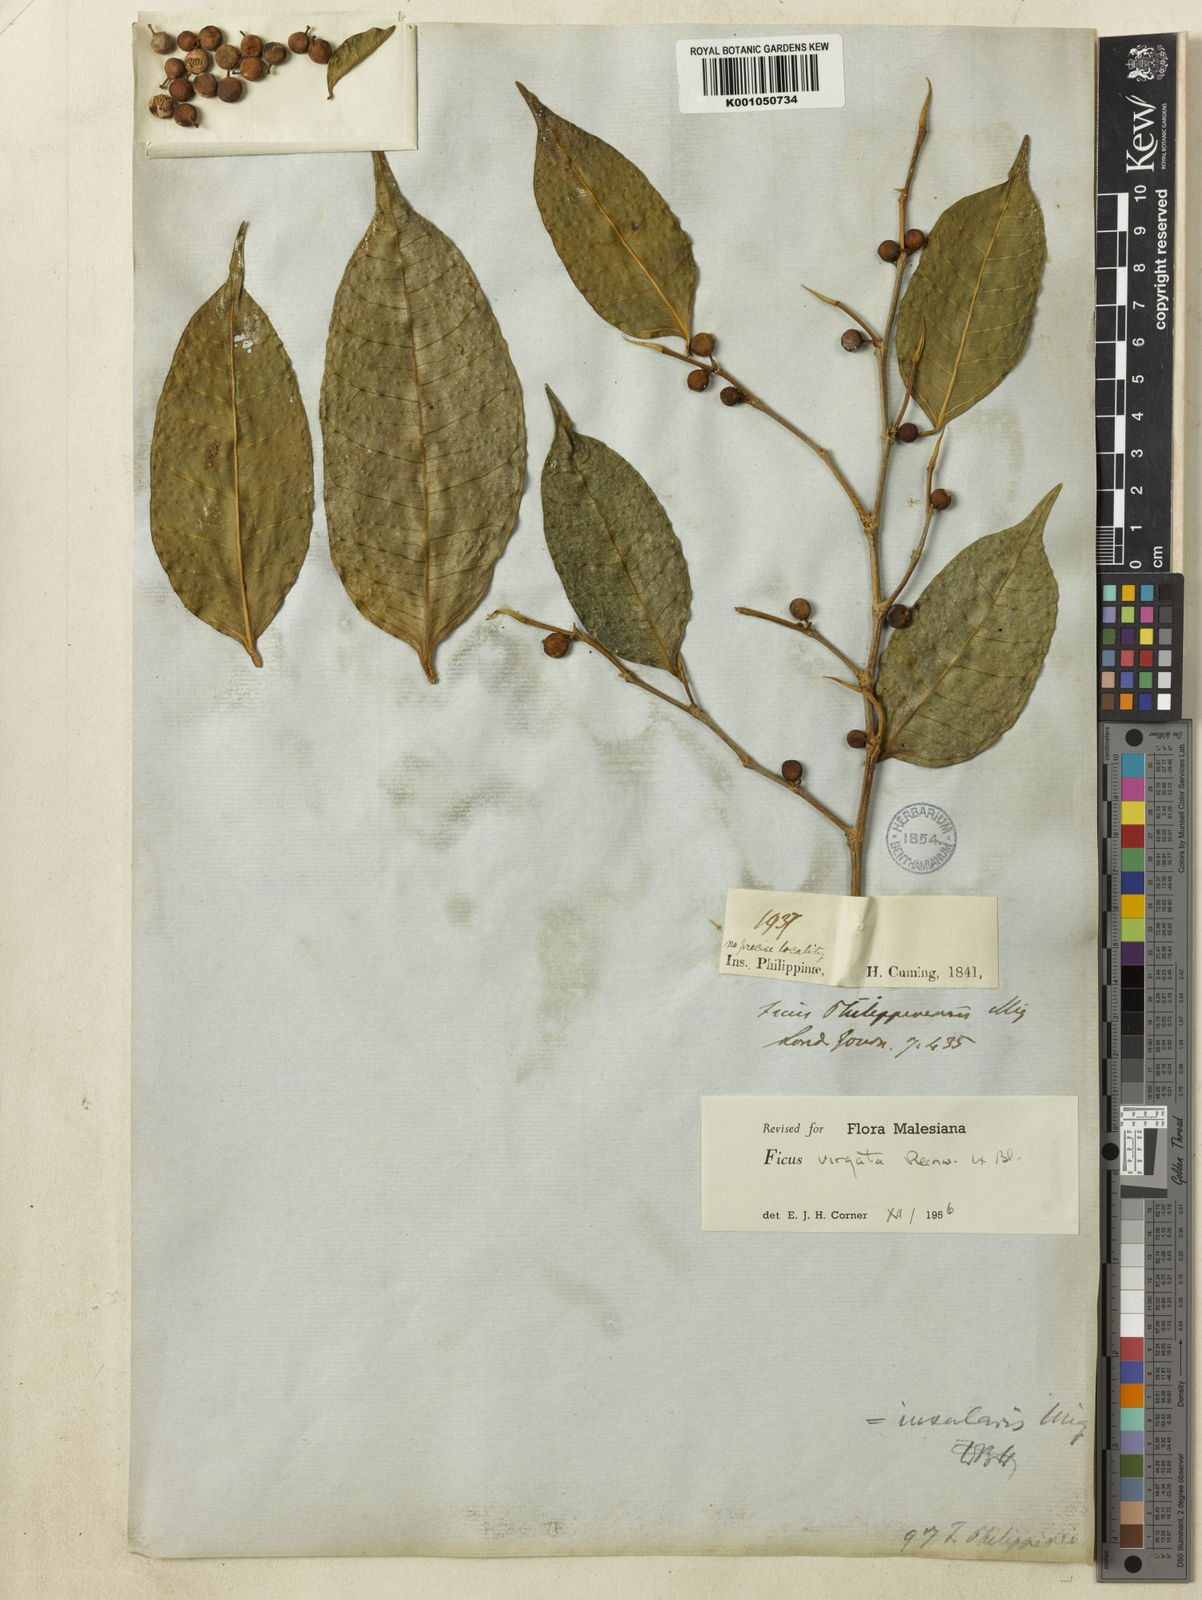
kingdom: Plantae
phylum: Tracheophyta
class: Magnoliopsida
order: Rosales
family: Moraceae
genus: Ficus
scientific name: Ficus virgata
